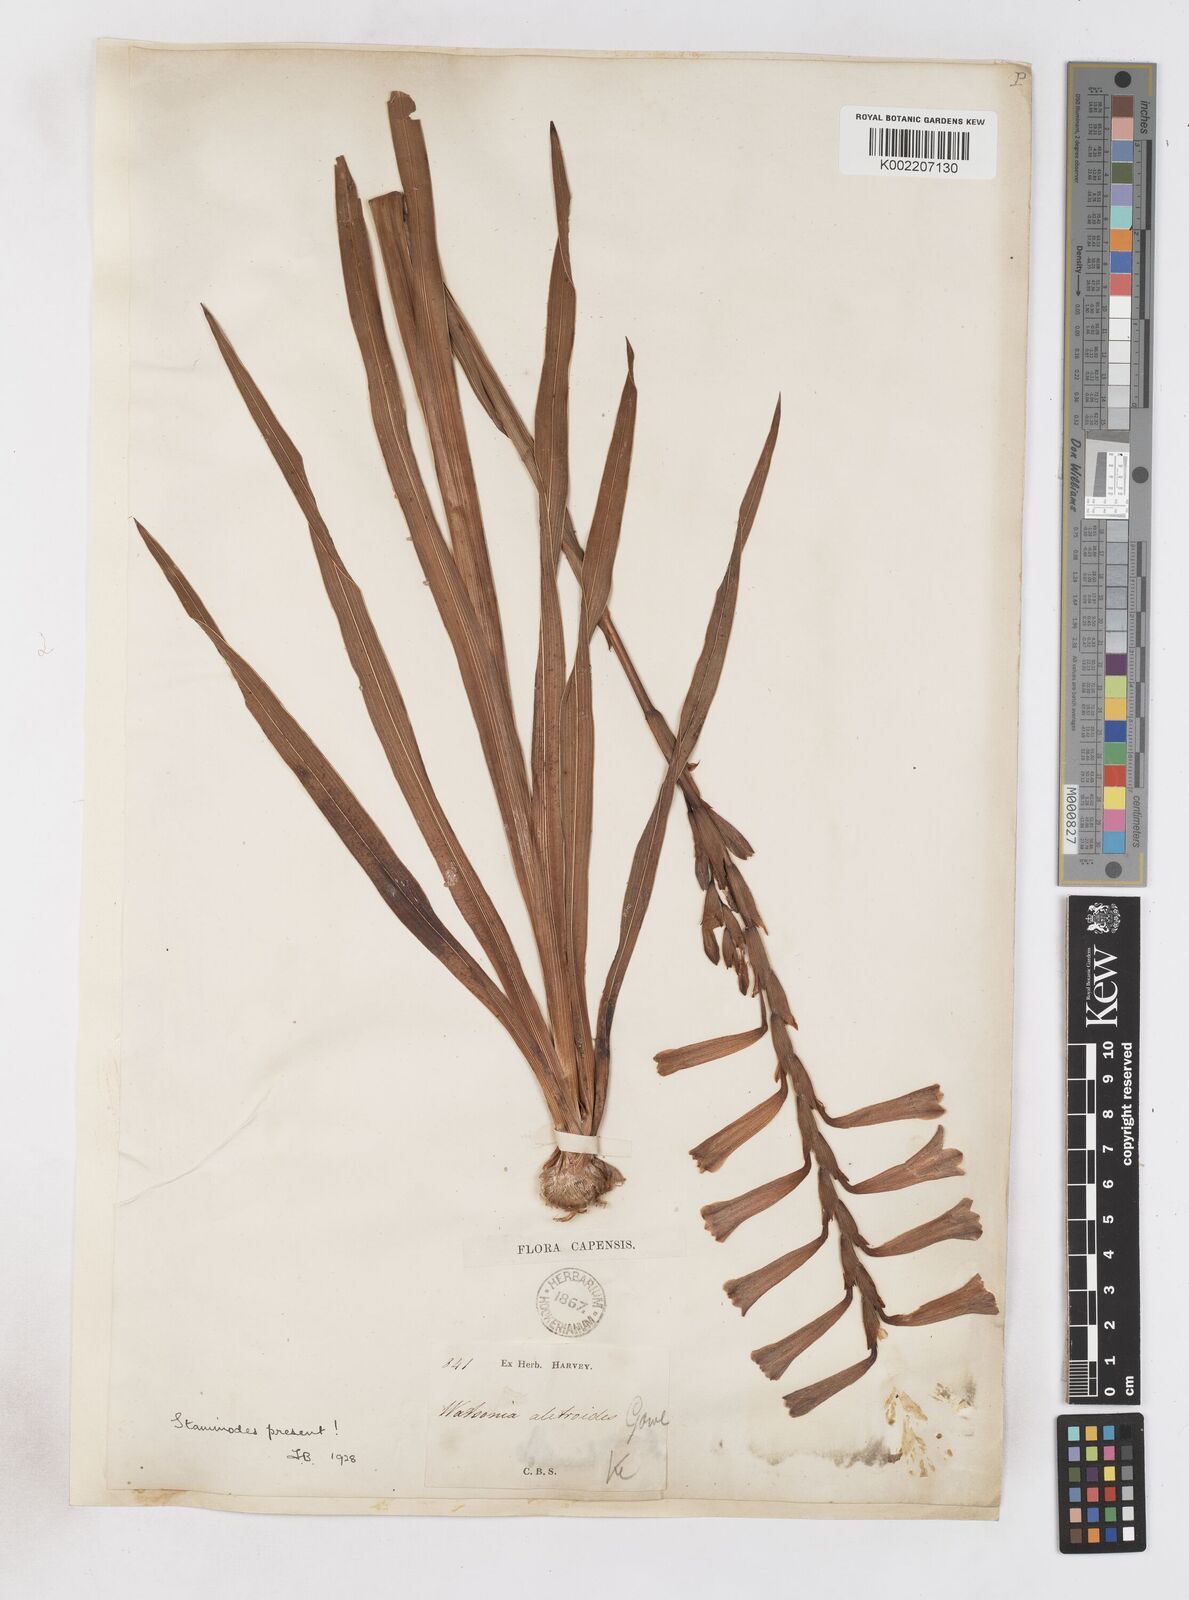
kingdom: Plantae
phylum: Tracheophyta
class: Liliopsida
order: Asparagales
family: Iridaceae
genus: Watsonia
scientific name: Watsonia aletroides
